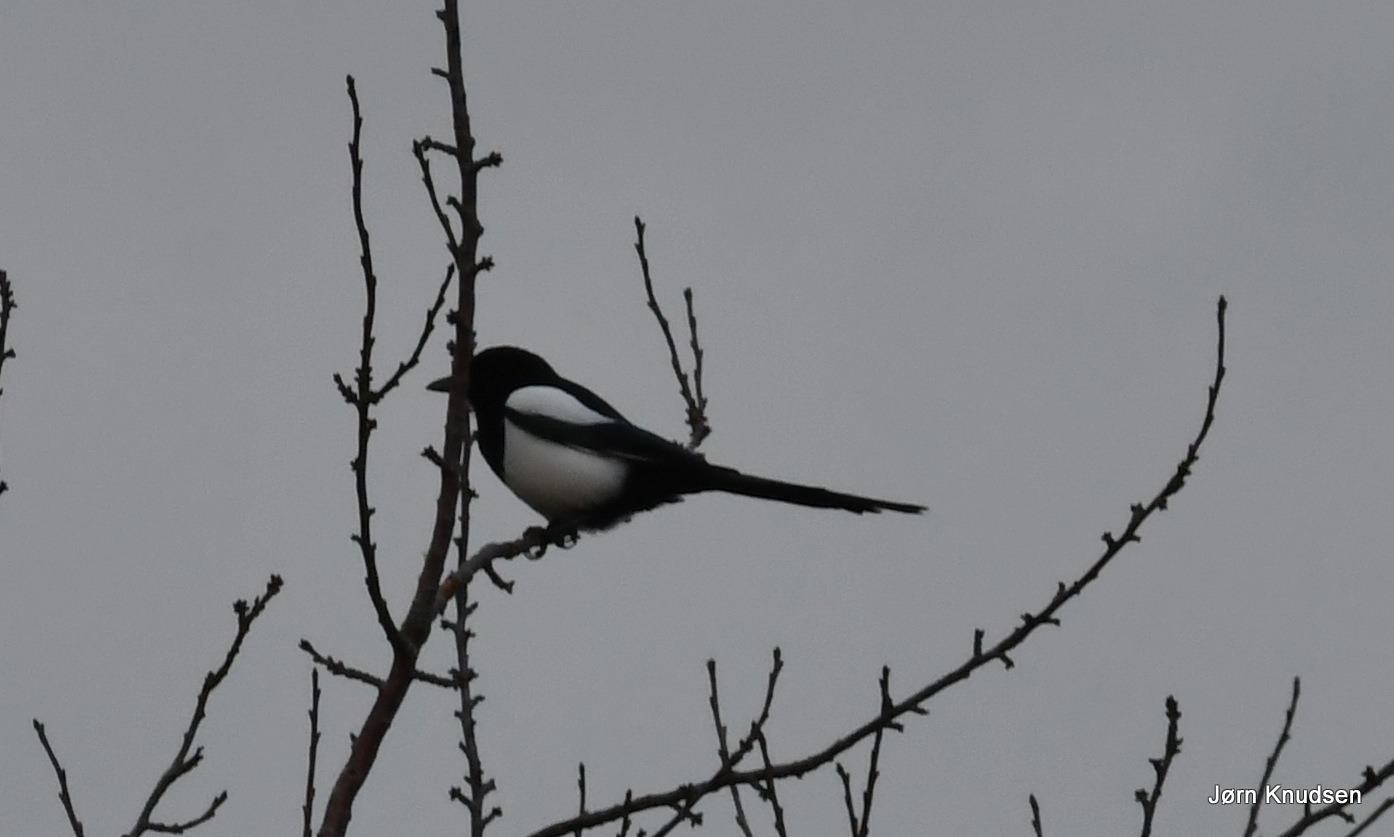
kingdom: Animalia
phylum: Chordata
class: Aves
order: Passeriformes
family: Corvidae
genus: Pica
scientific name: Pica pica
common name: Husskade
